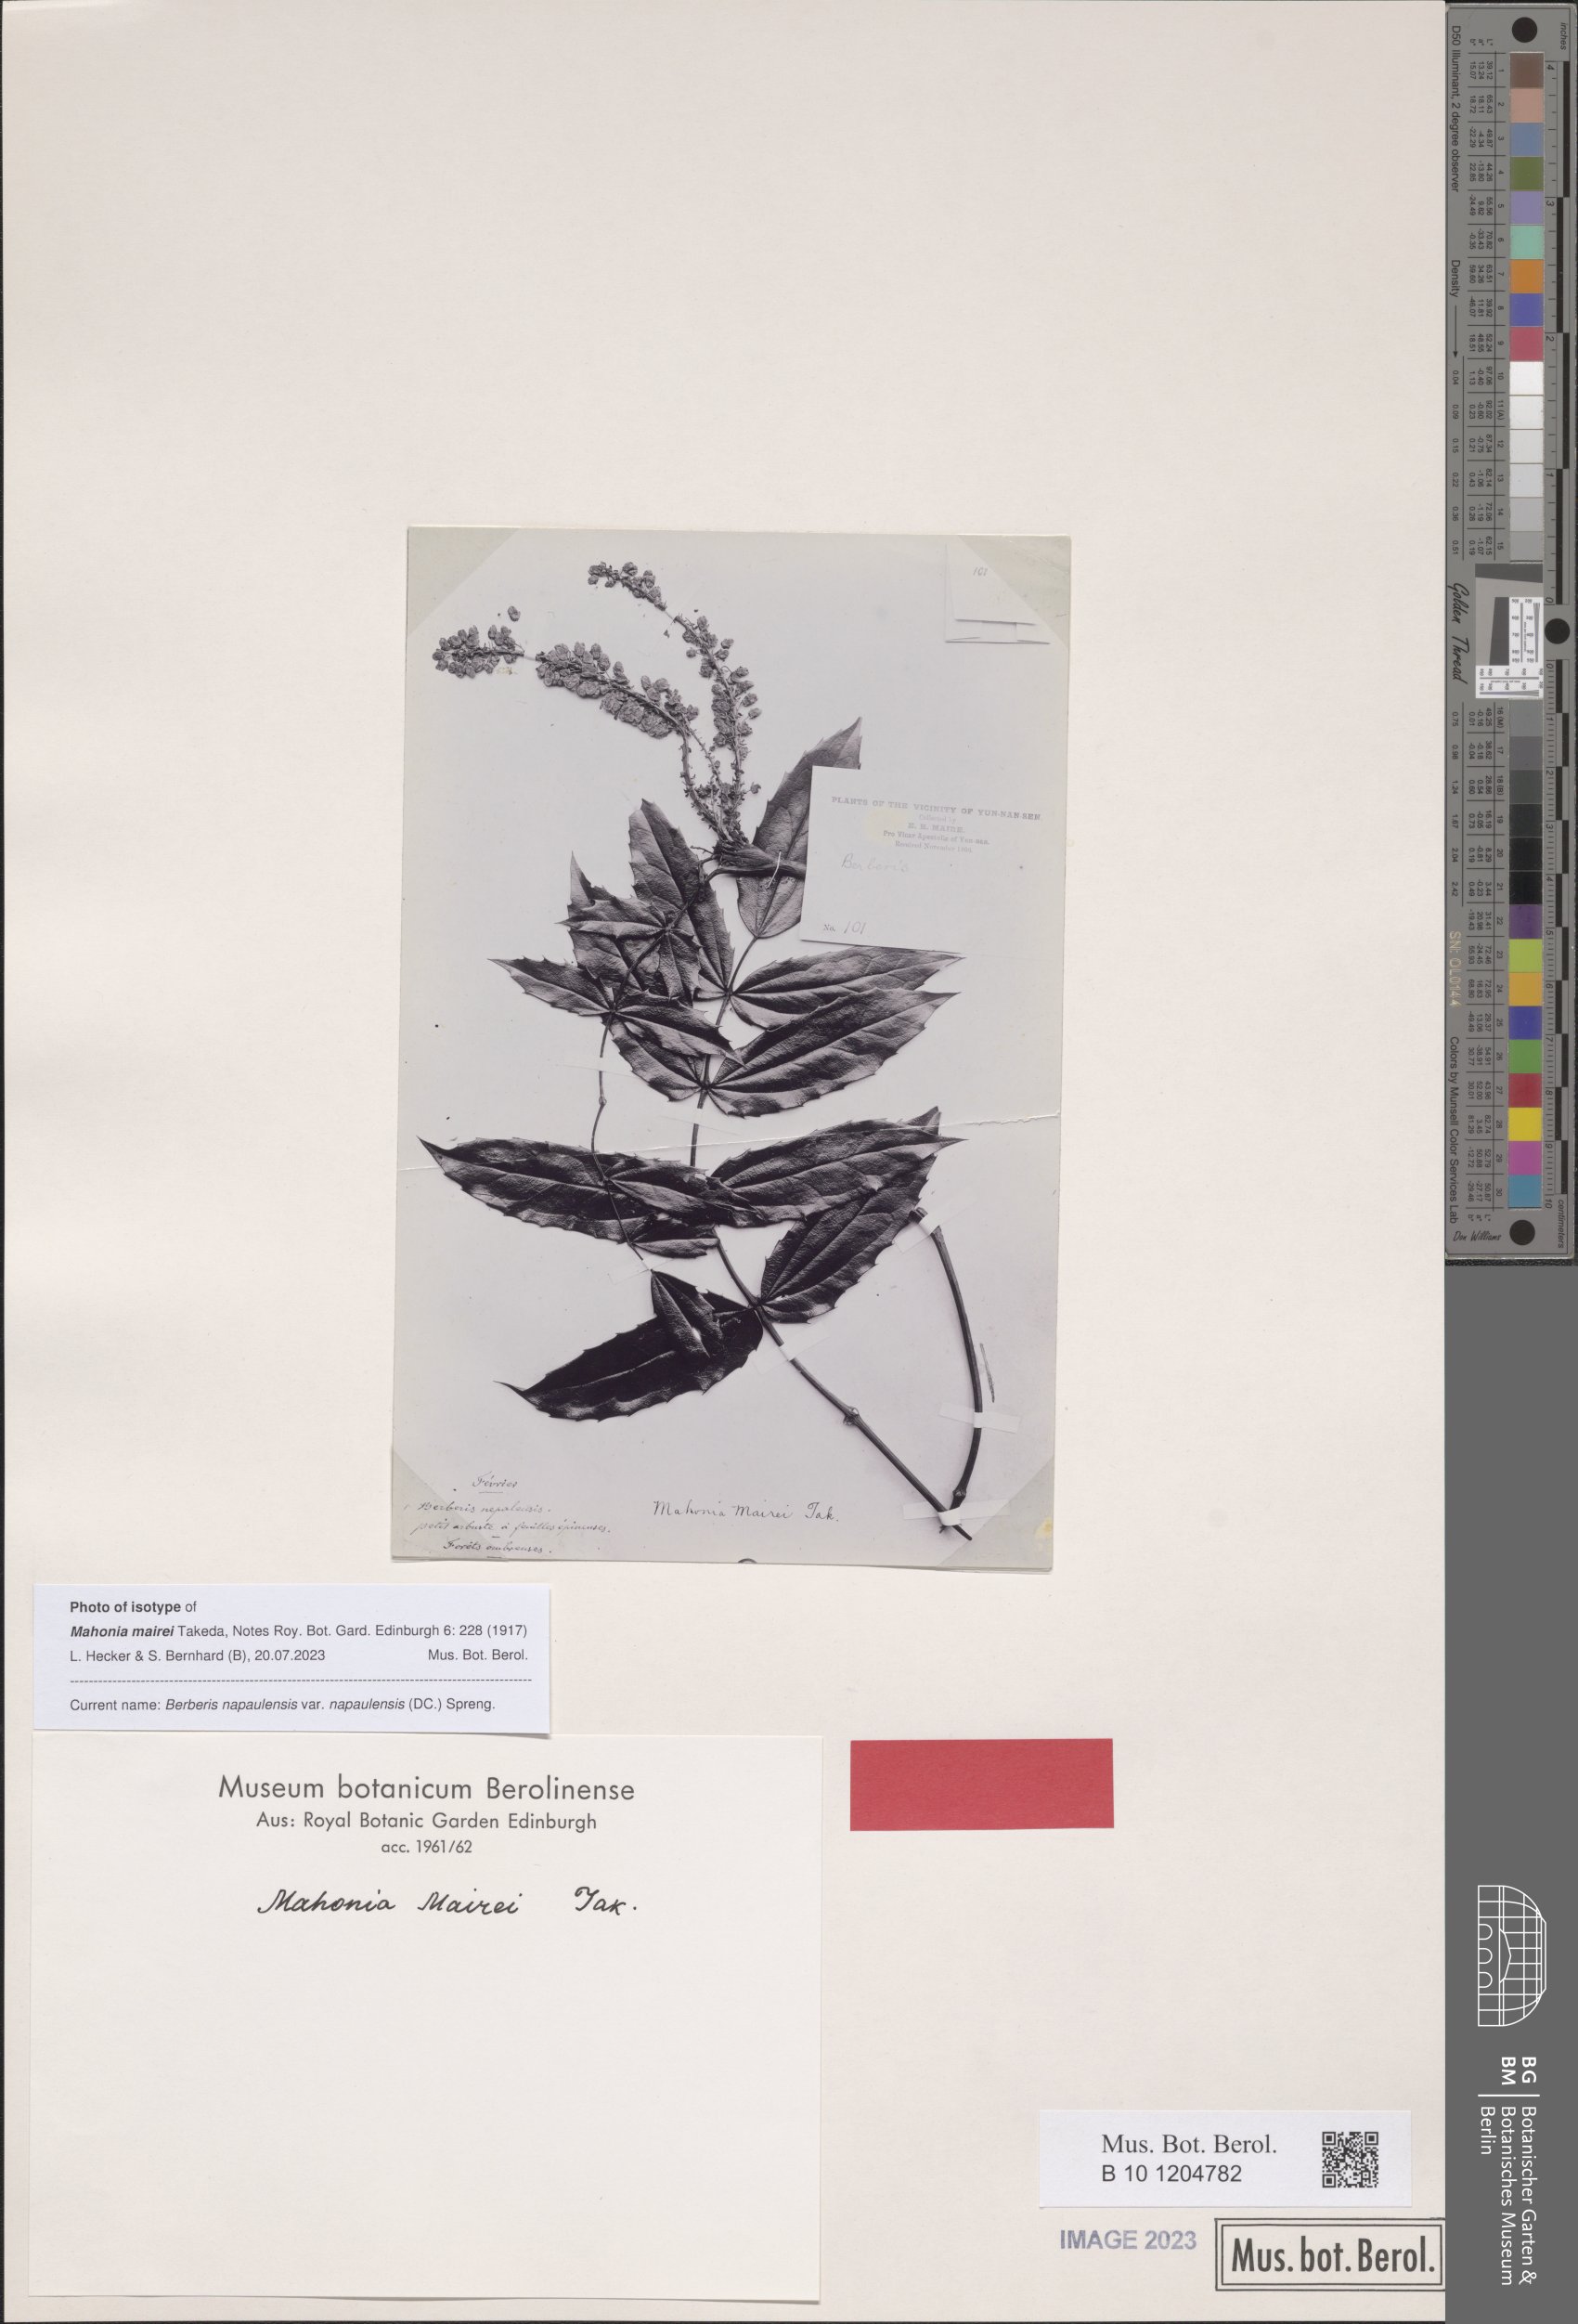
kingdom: Plantae
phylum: Tracheophyta
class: Magnoliopsida
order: Ranunculales
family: Berberidaceae
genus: Mahonia
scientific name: Mahonia napaulensis
